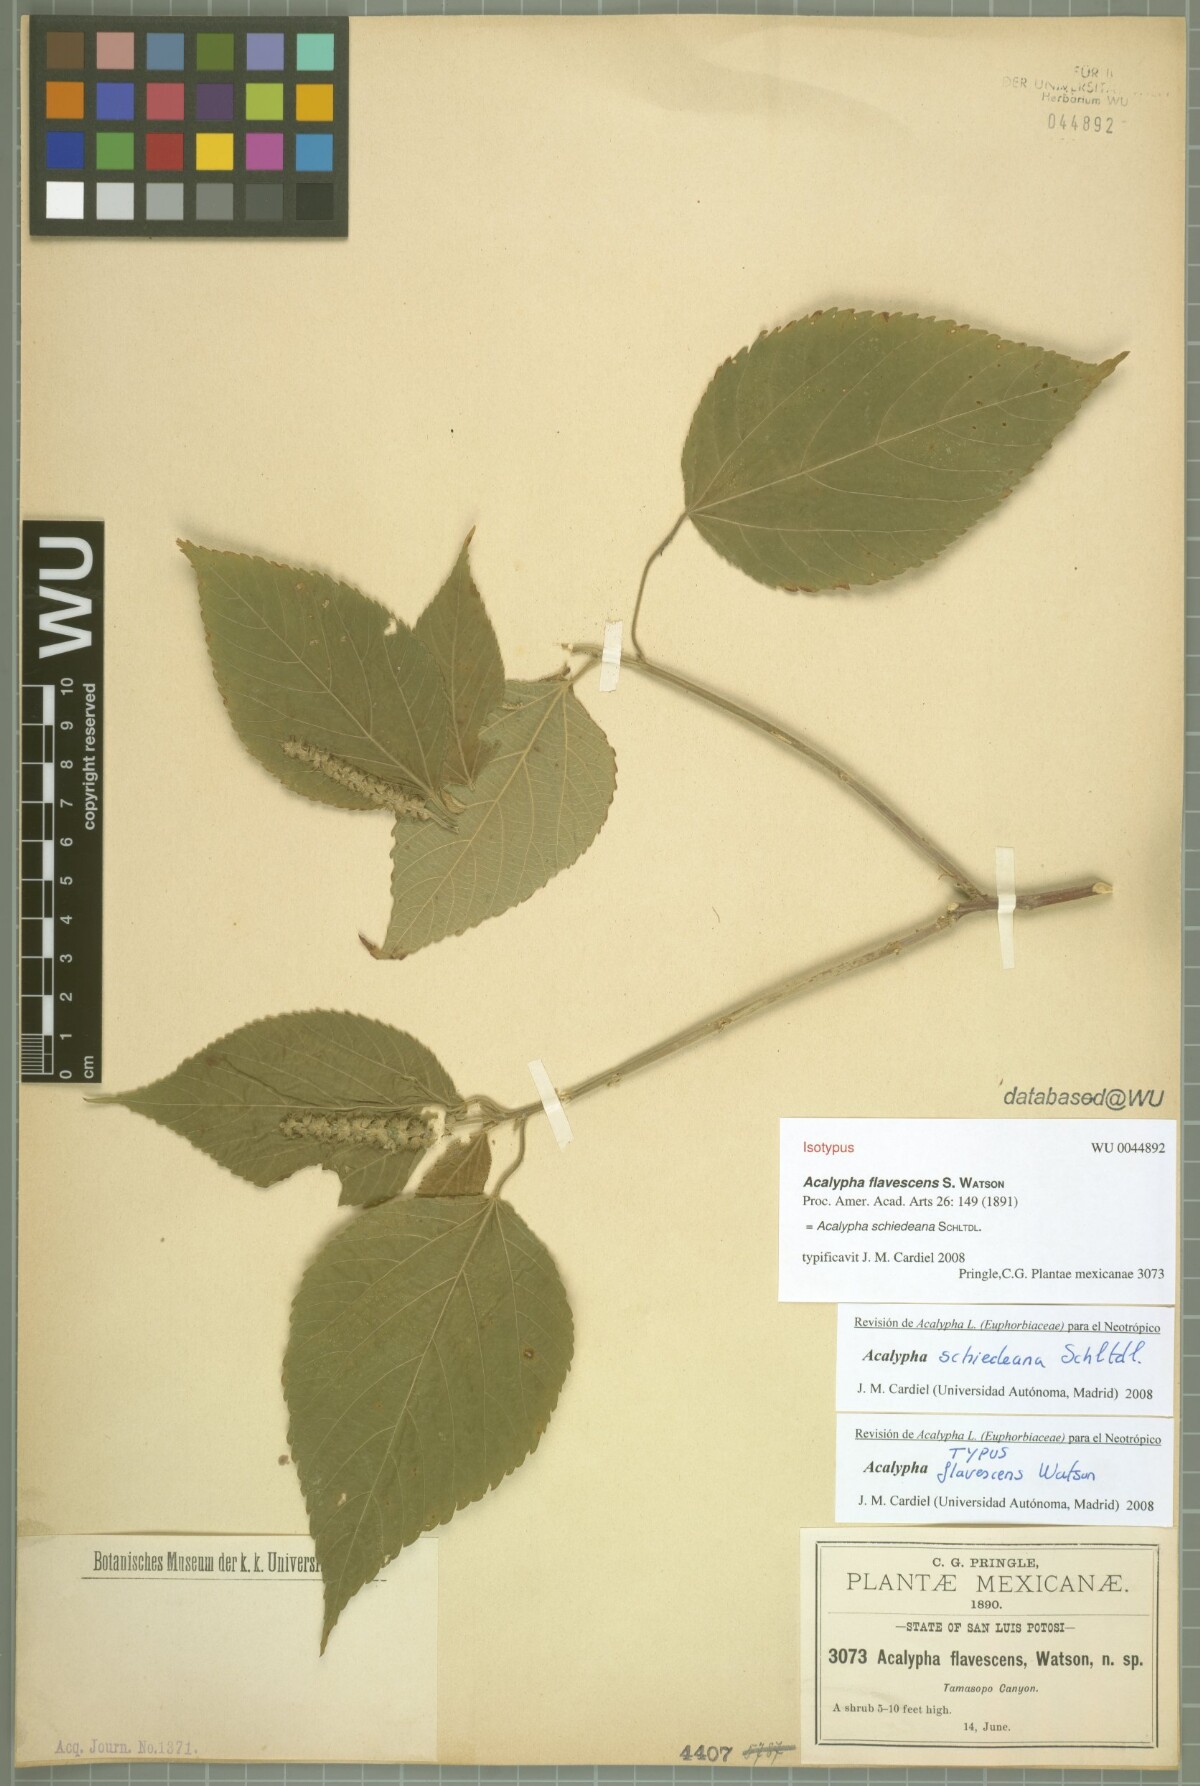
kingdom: Plantae
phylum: Tracheophyta
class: Magnoliopsida
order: Malpighiales
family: Euphorbiaceae
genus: Acalypha
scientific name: Acalypha flavescens
